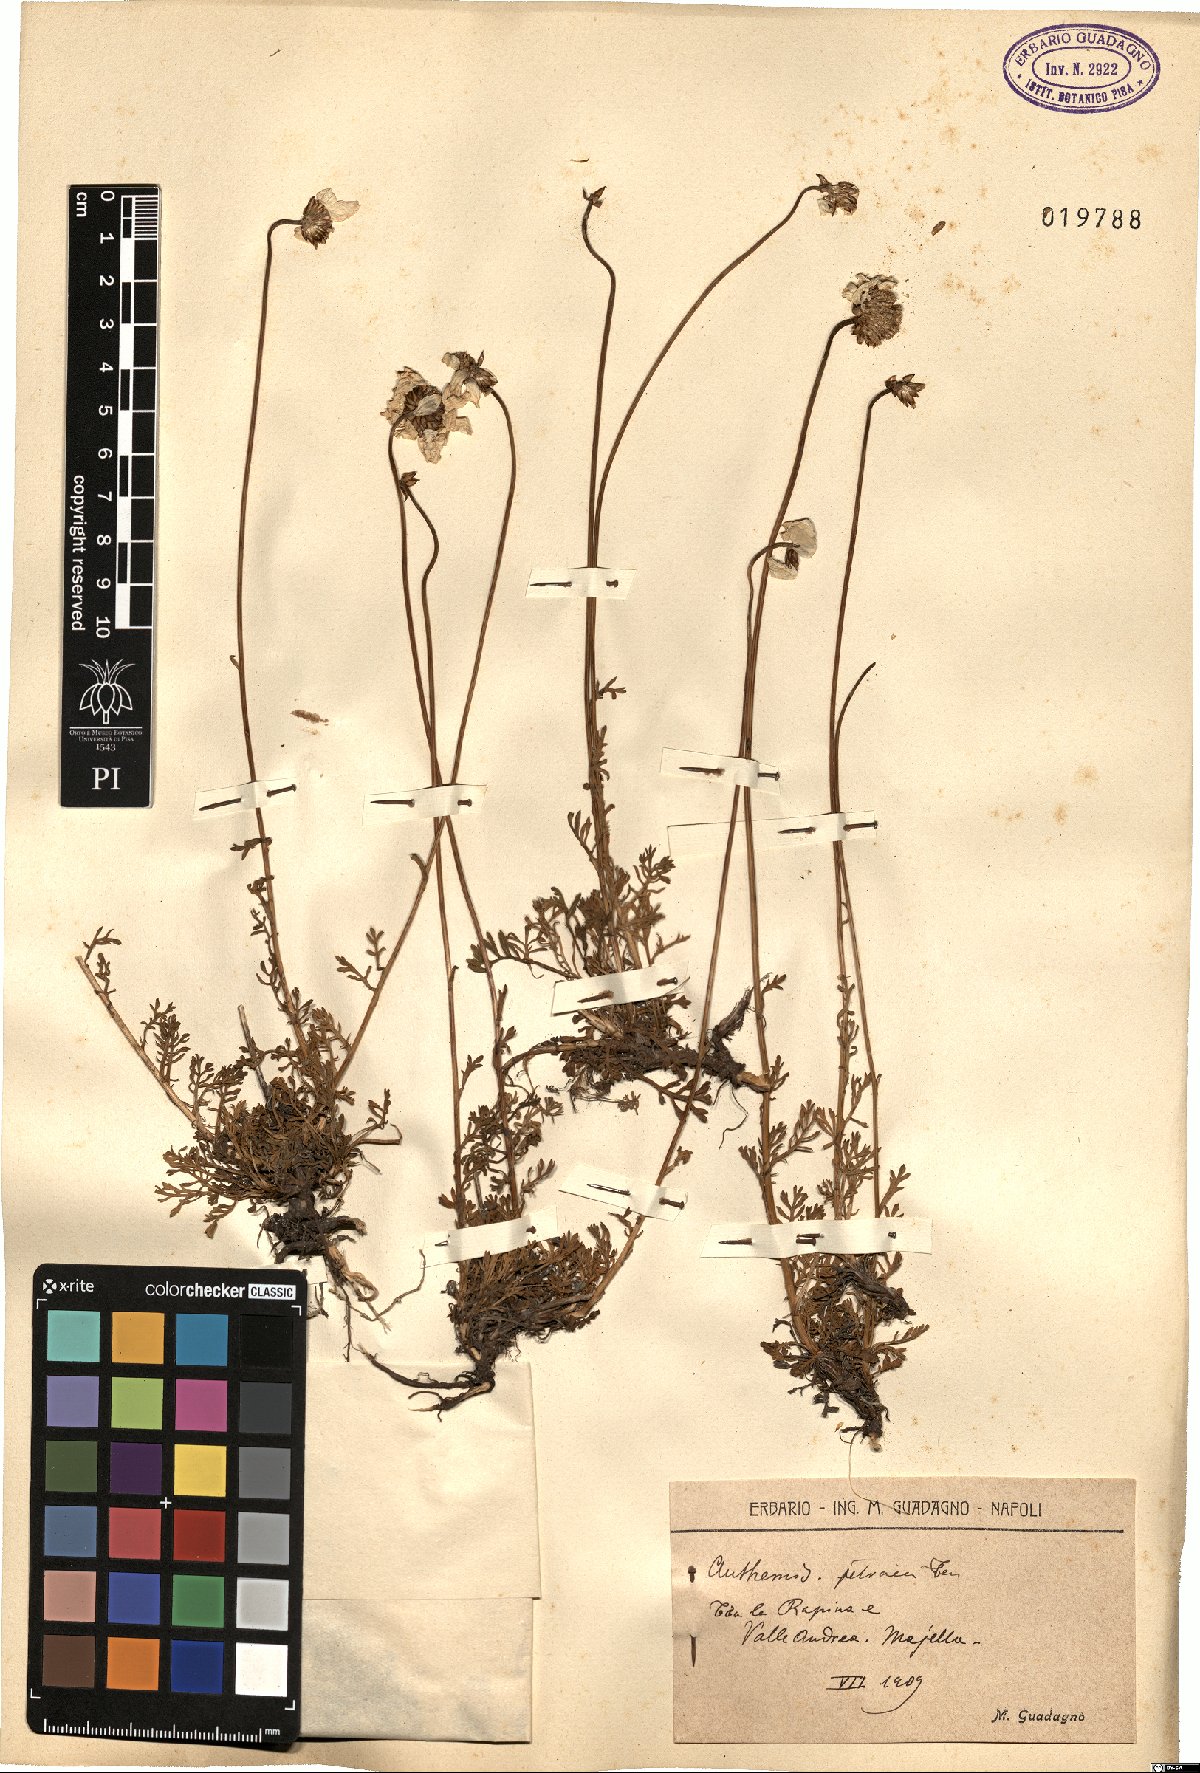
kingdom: Plantae
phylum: Tracheophyta
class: Magnoliopsida
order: Asterales
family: Asteraceae
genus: Anthemis
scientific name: Anthemis cretica
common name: Mountain dog-daisy
